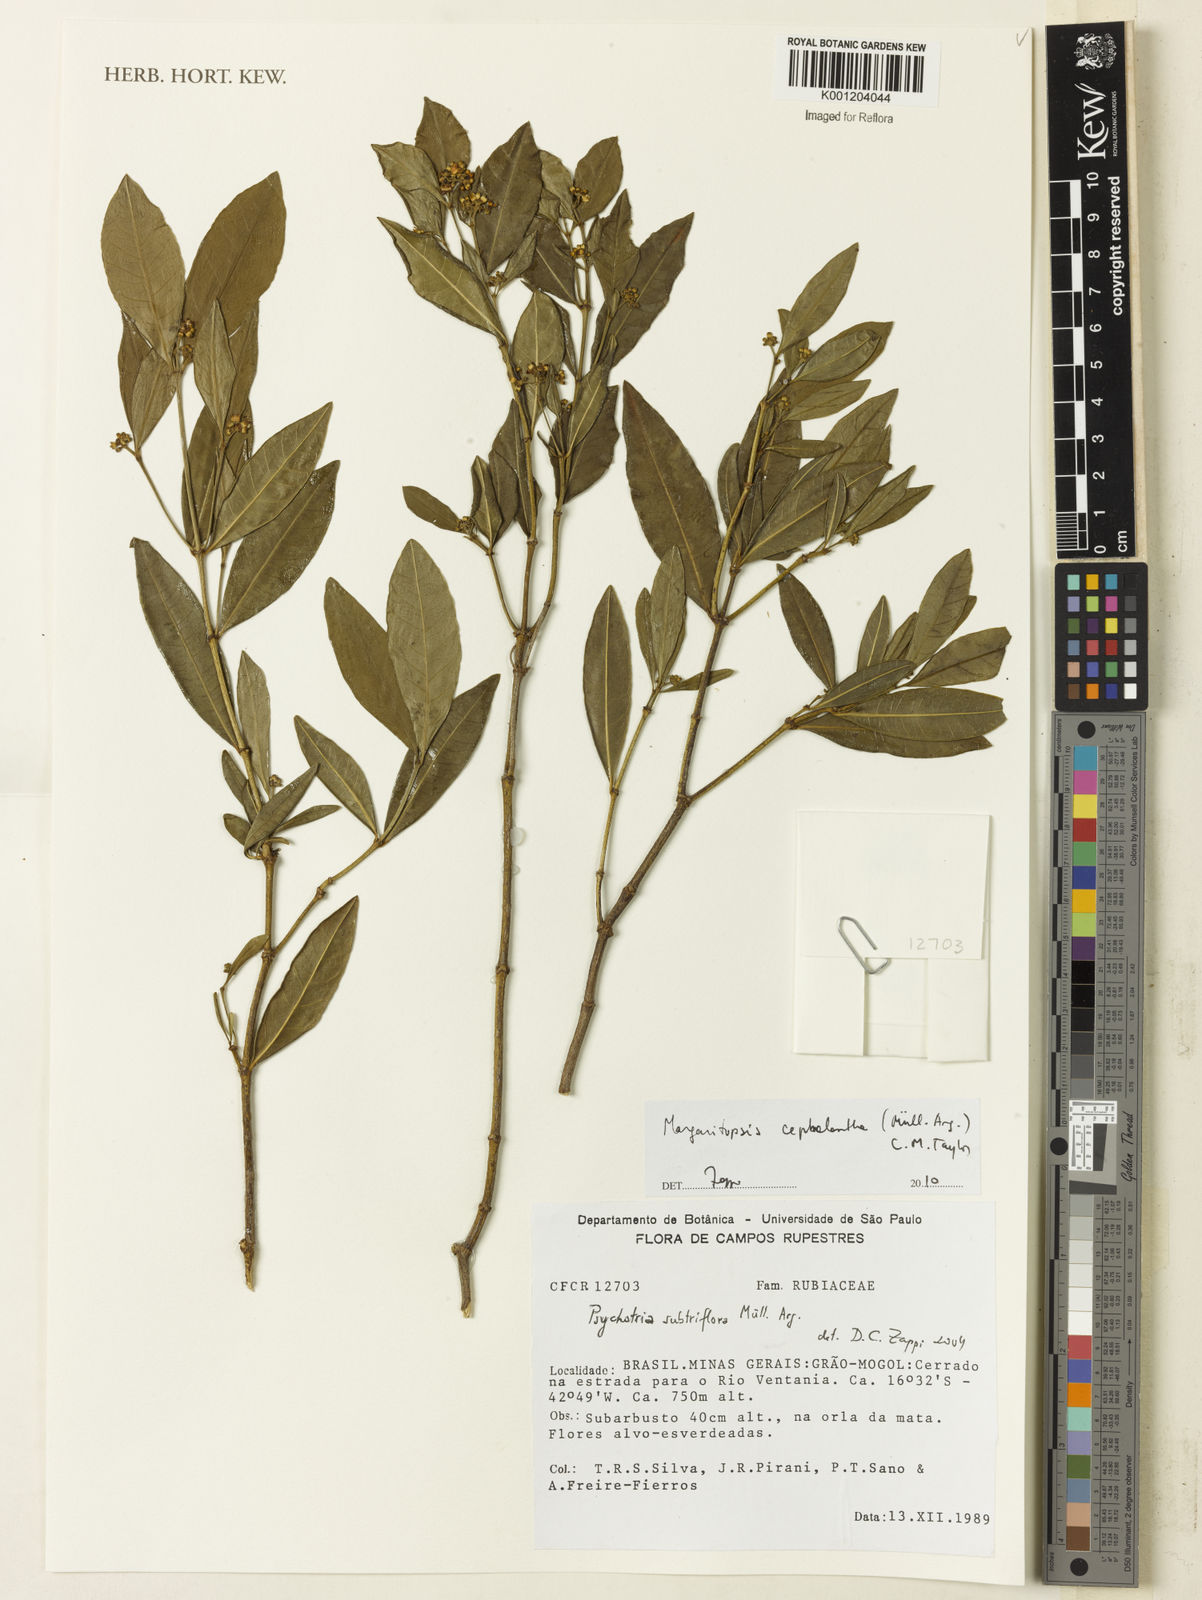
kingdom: Plantae
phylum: Tracheophyta
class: Magnoliopsida
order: Gentianales
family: Rubiaceae
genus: Eumachia
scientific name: Eumachia
